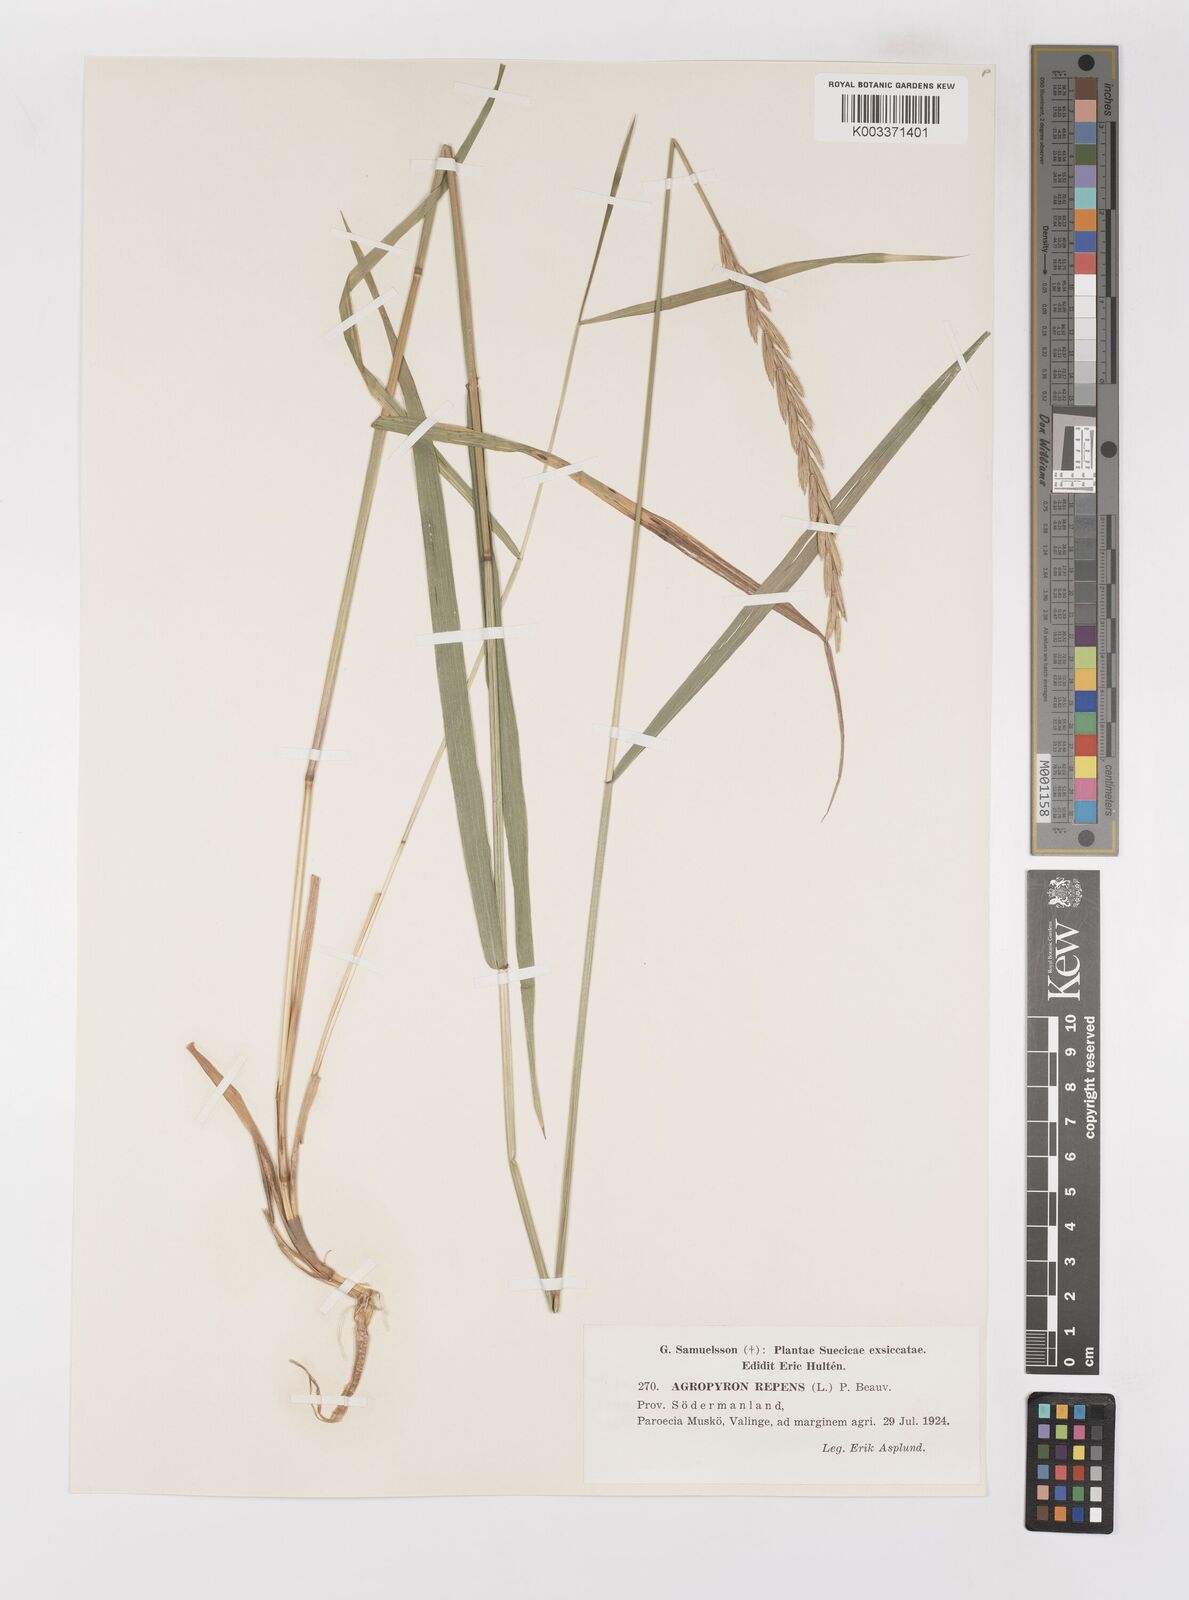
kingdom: Plantae
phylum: Tracheophyta
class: Liliopsida
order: Poales
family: Poaceae
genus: Elymus
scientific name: Elymus repens
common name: Quackgrass
